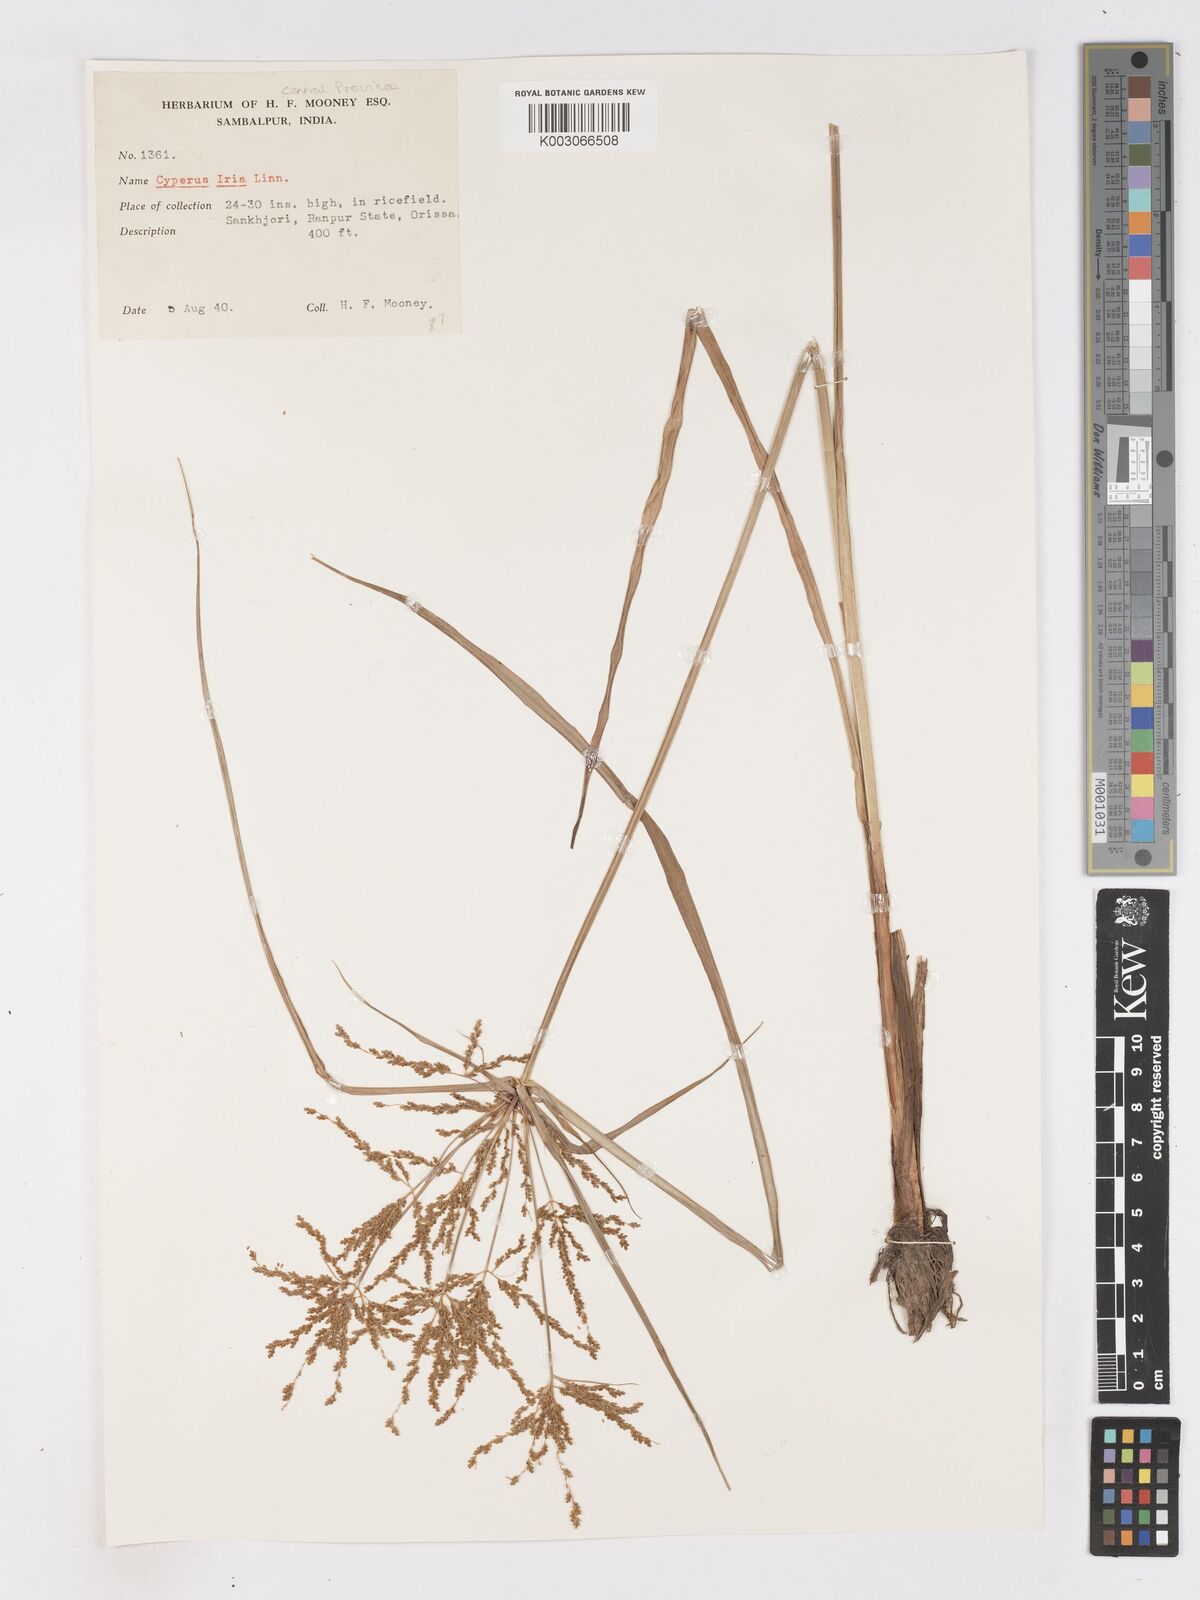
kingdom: Plantae
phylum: Tracheophyta
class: Liliopsida
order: Poales
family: Cyperaceae
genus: Cyperus
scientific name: Cyperus iria
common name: Ricefield flatsedge
